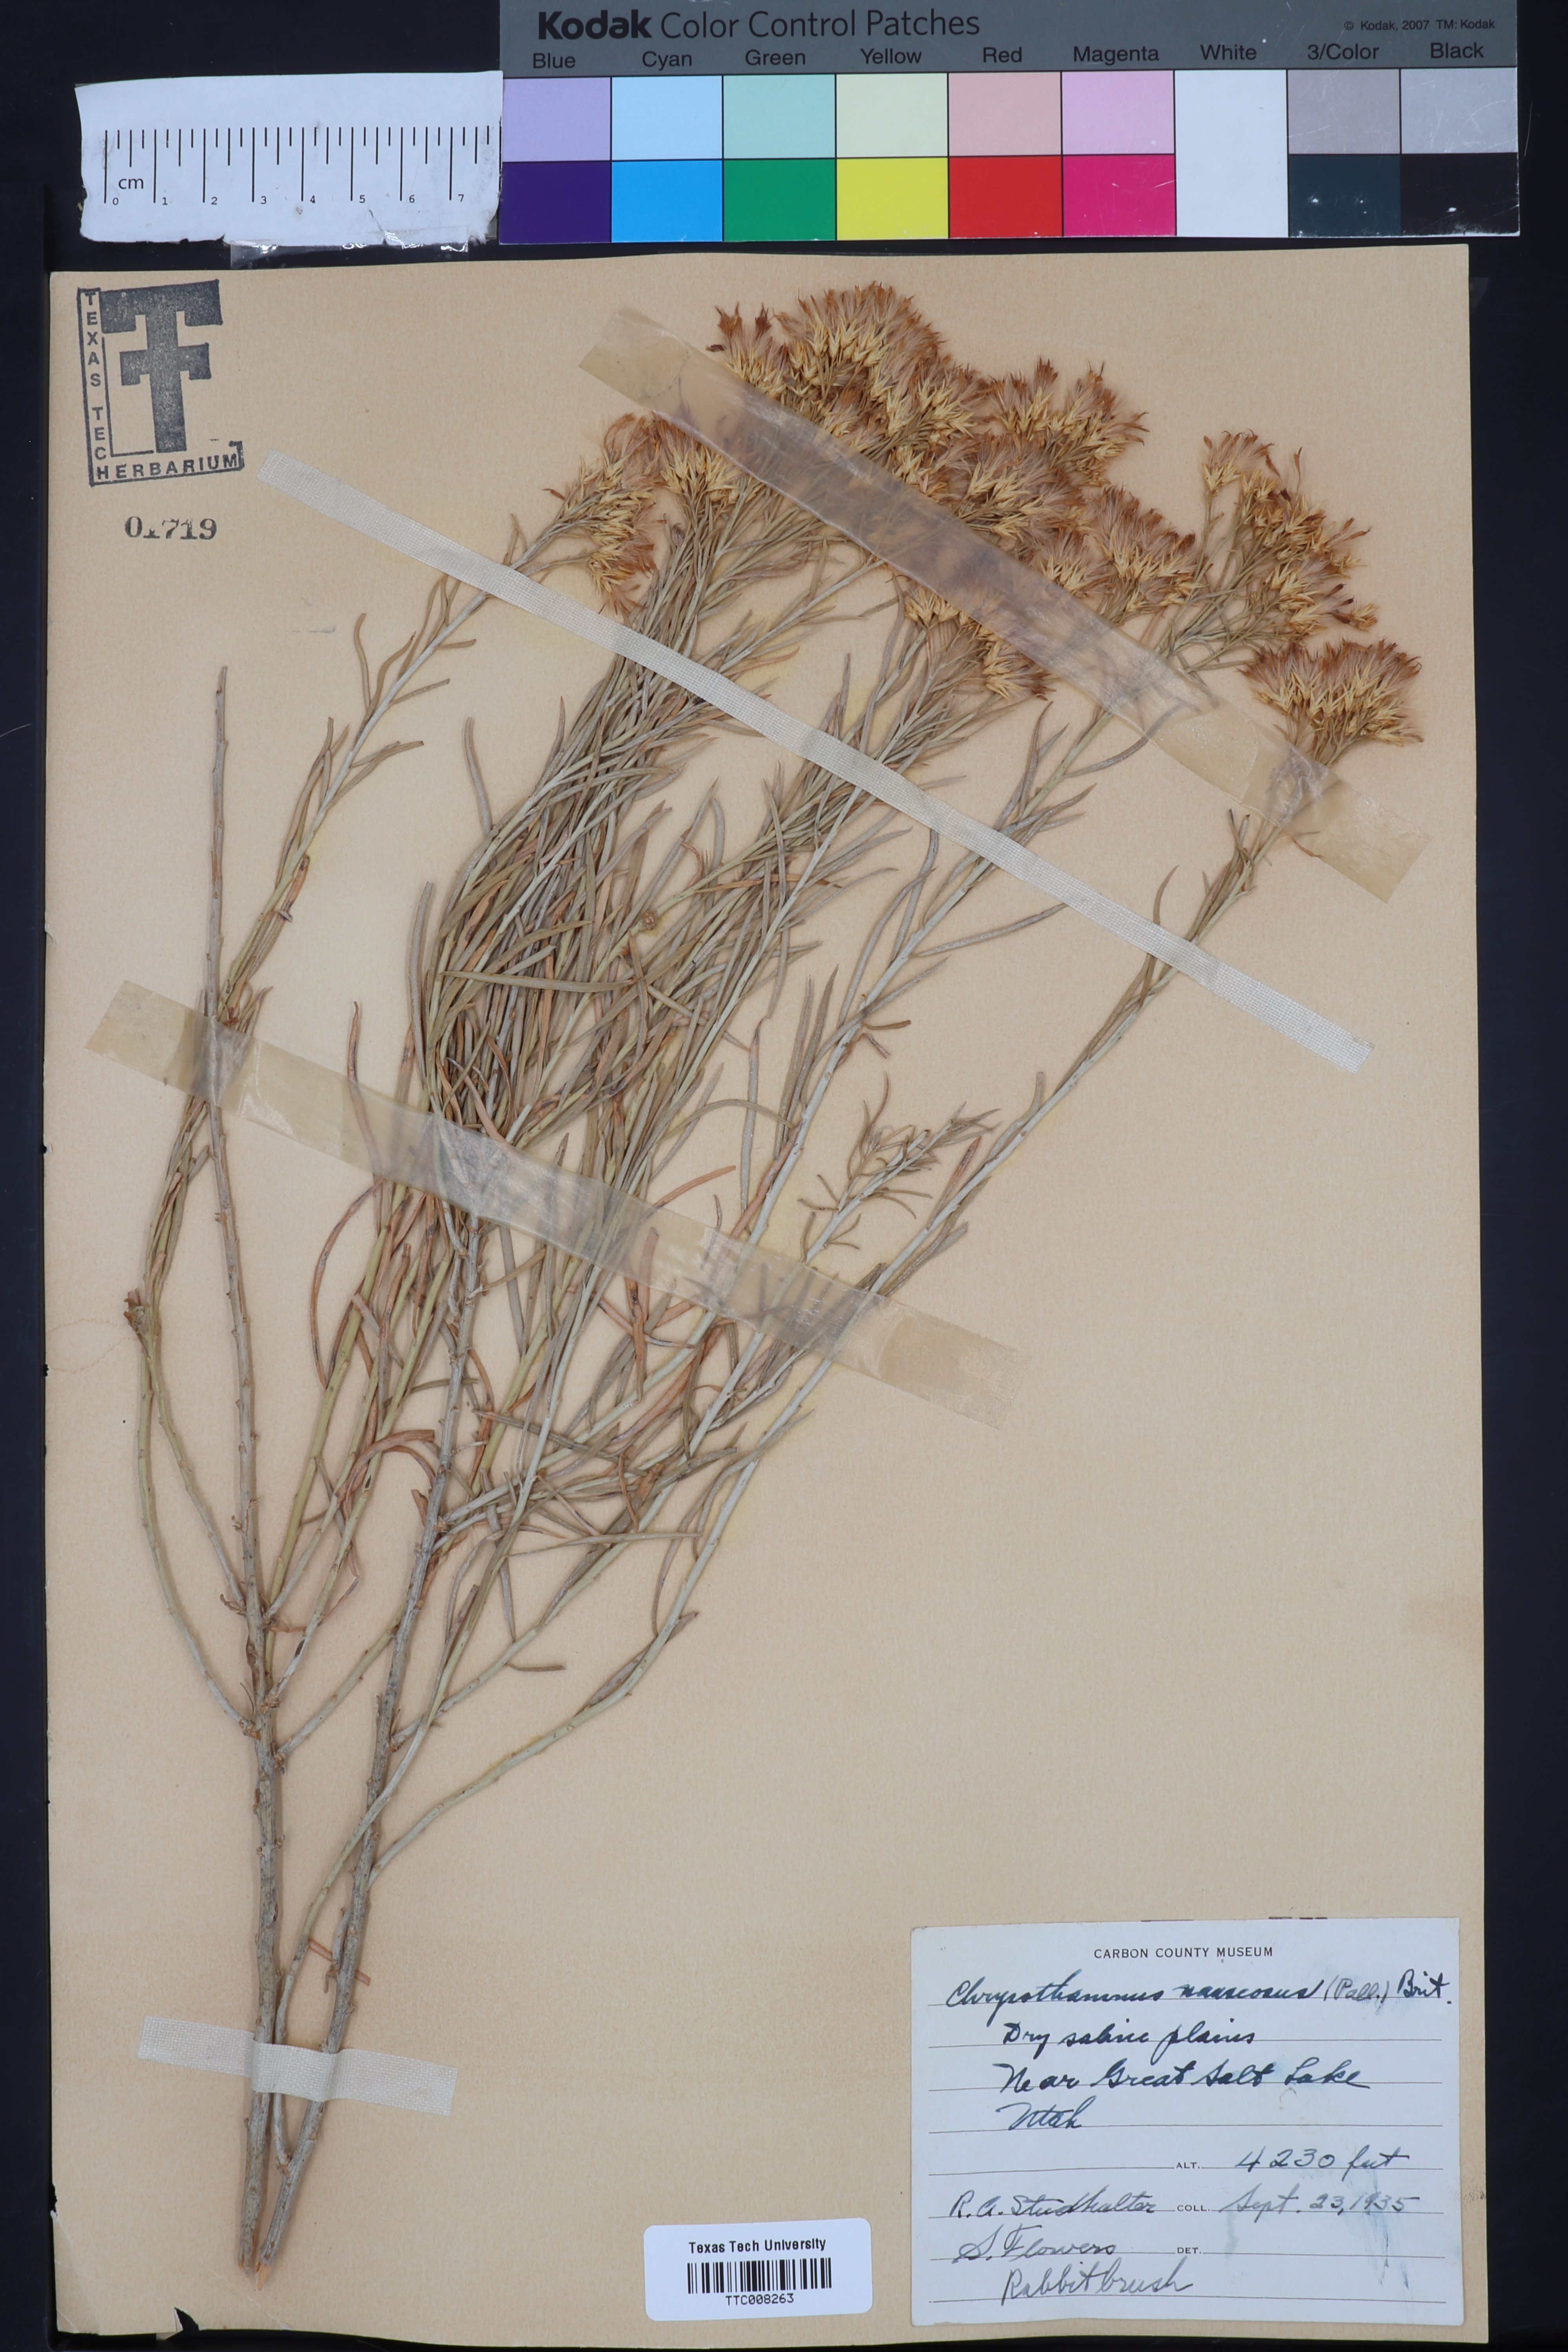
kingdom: Plantae
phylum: Tracheophyta
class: Magnoliopsida
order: Asterales
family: Asteraceae
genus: Ericameria
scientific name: Ericameria nauseosa
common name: Rubber rabbitbrush
